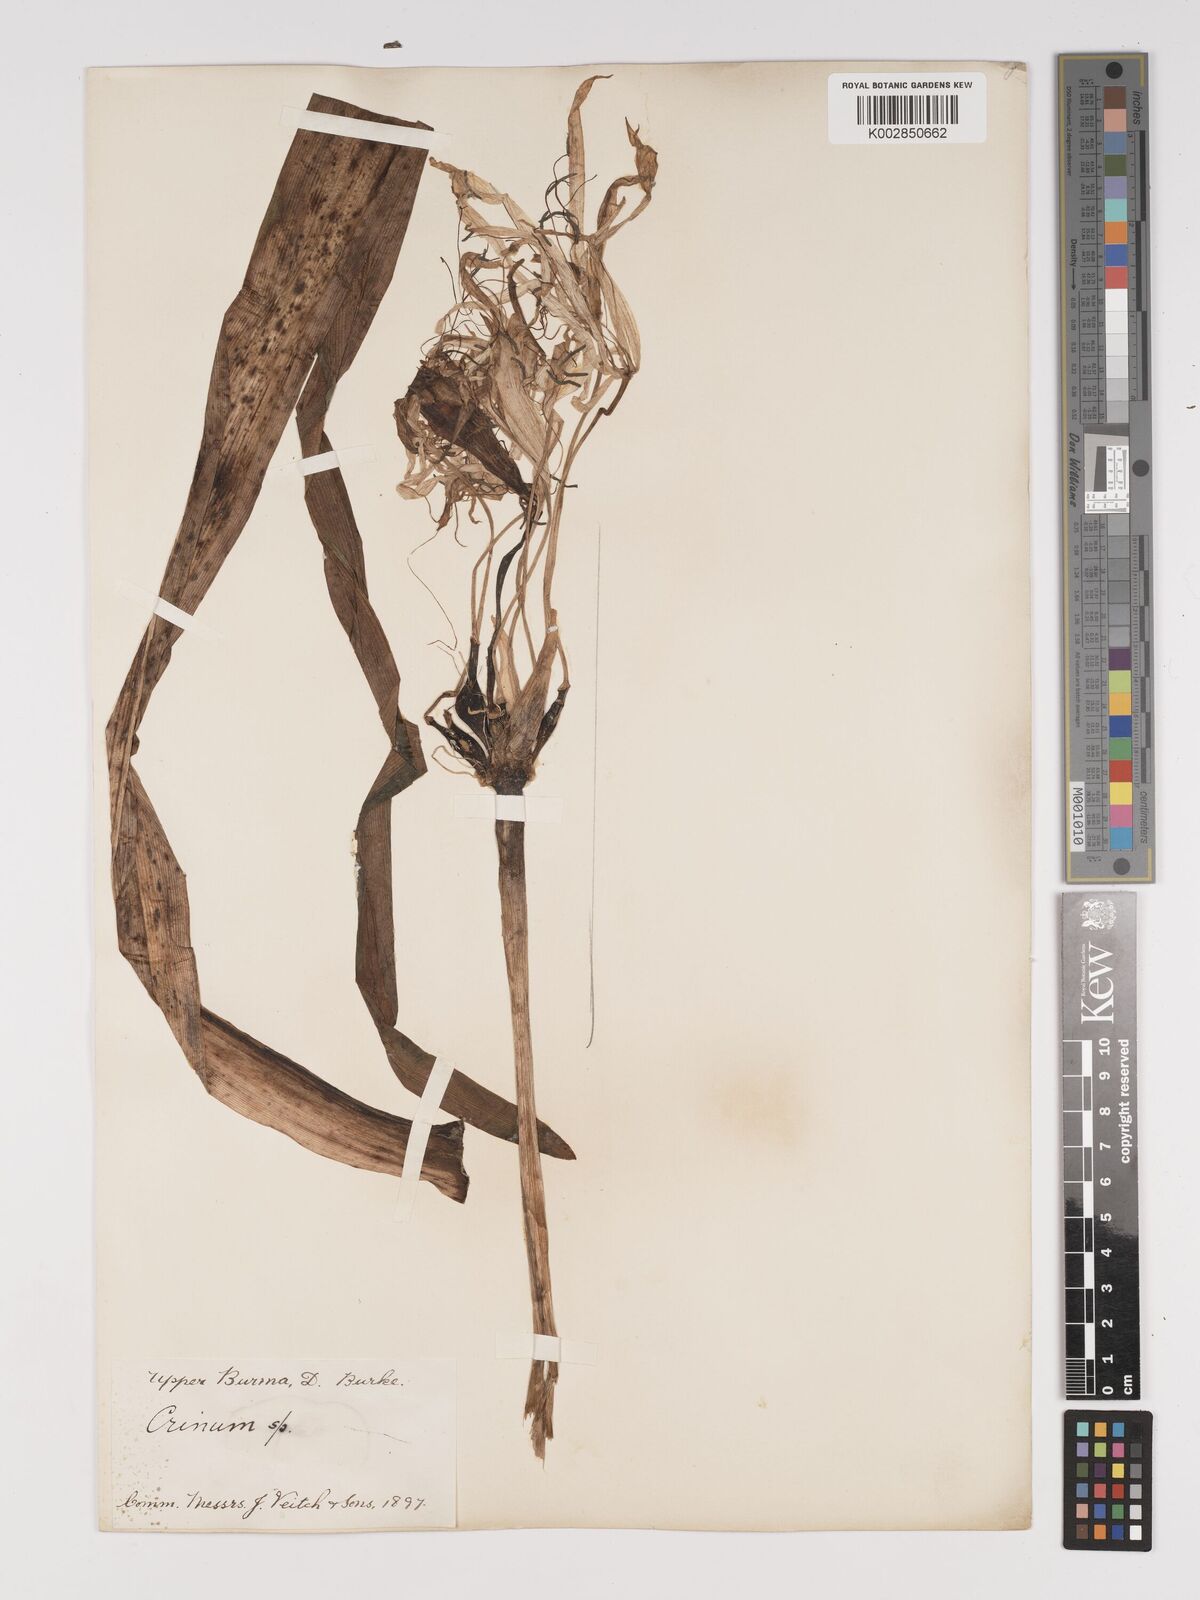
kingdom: Plantae
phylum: Tracheophyta
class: Liliopsida
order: Asparagales
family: Amaryllidaceae
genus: Crinum
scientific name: Crinum wattii
